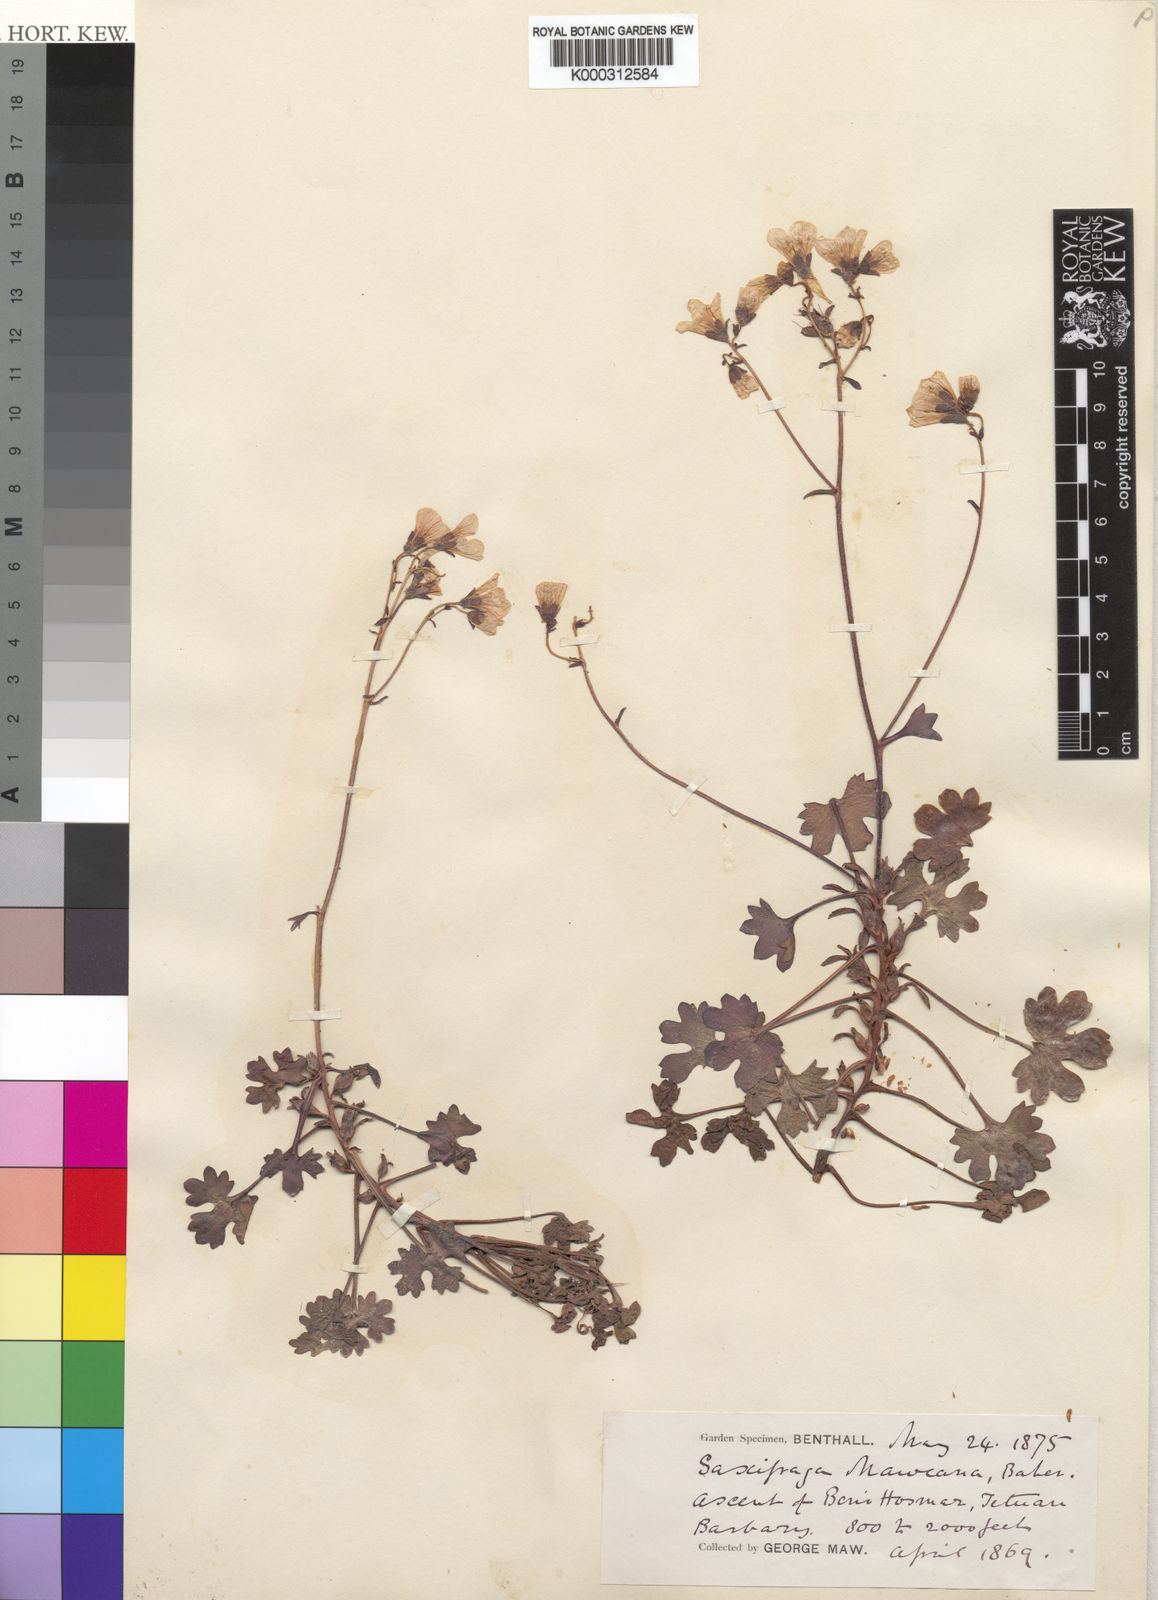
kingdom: Plantae
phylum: Tracheophyta
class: Magnoliopsida
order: Saxifragales
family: Saxifragaceae
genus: Saxifraga
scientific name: Saxifraga maweana
